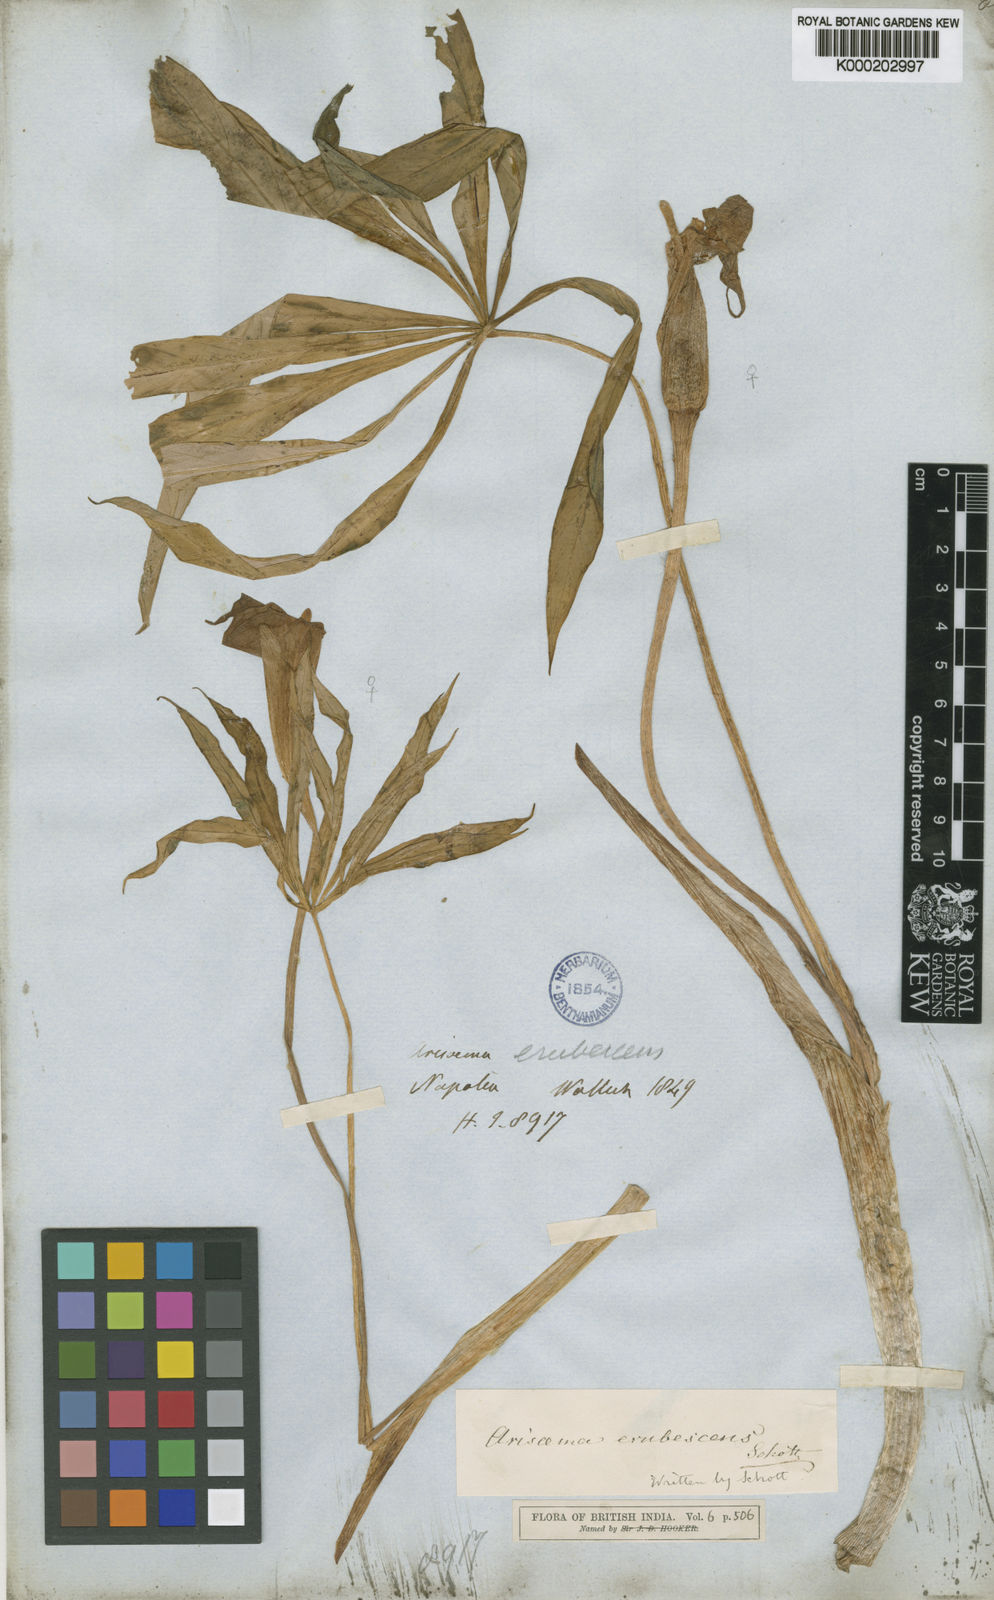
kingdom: Plantae
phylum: Tracheophyta
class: Liliopsida
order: Alismatales
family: Araceae
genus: Arisaema
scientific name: Arisaema erubescens
